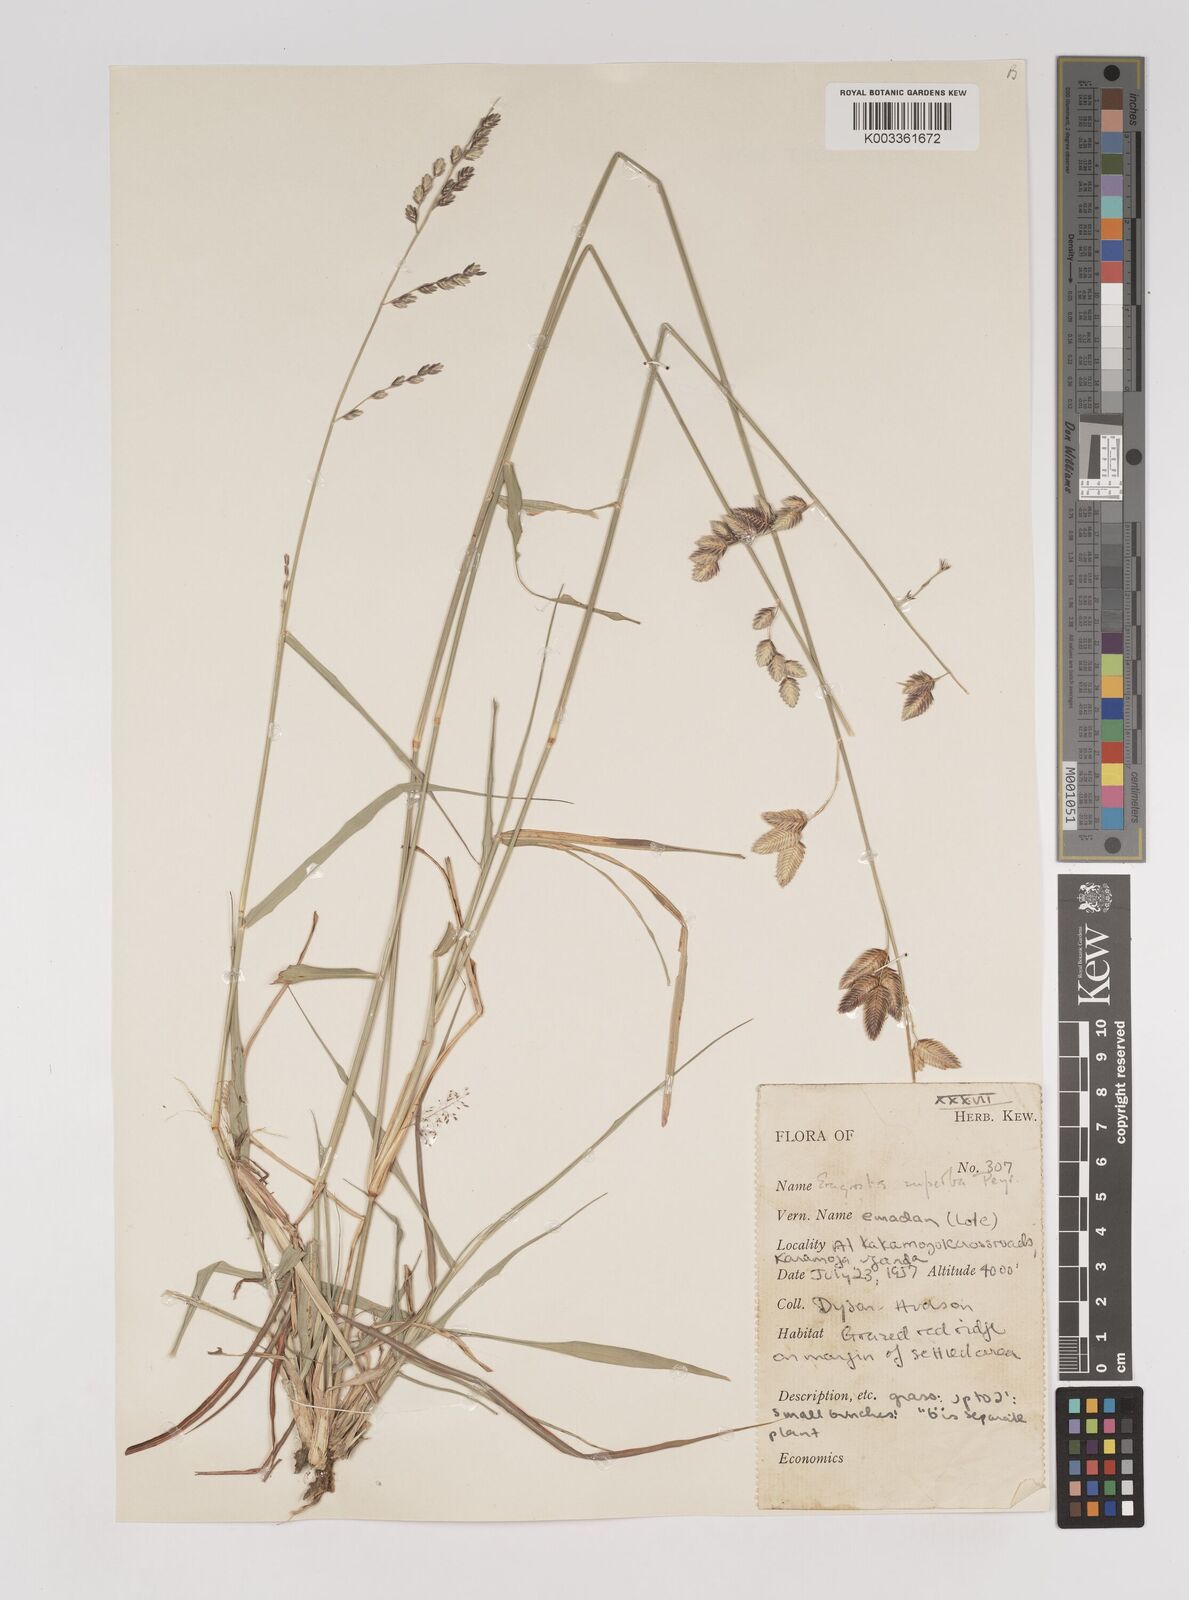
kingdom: Plantae
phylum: Tracheophyta
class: Liliopsida
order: Poales
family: Poaceae
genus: Eragrostis
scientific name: Eragrostis superba
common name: Wilman lovegrass
